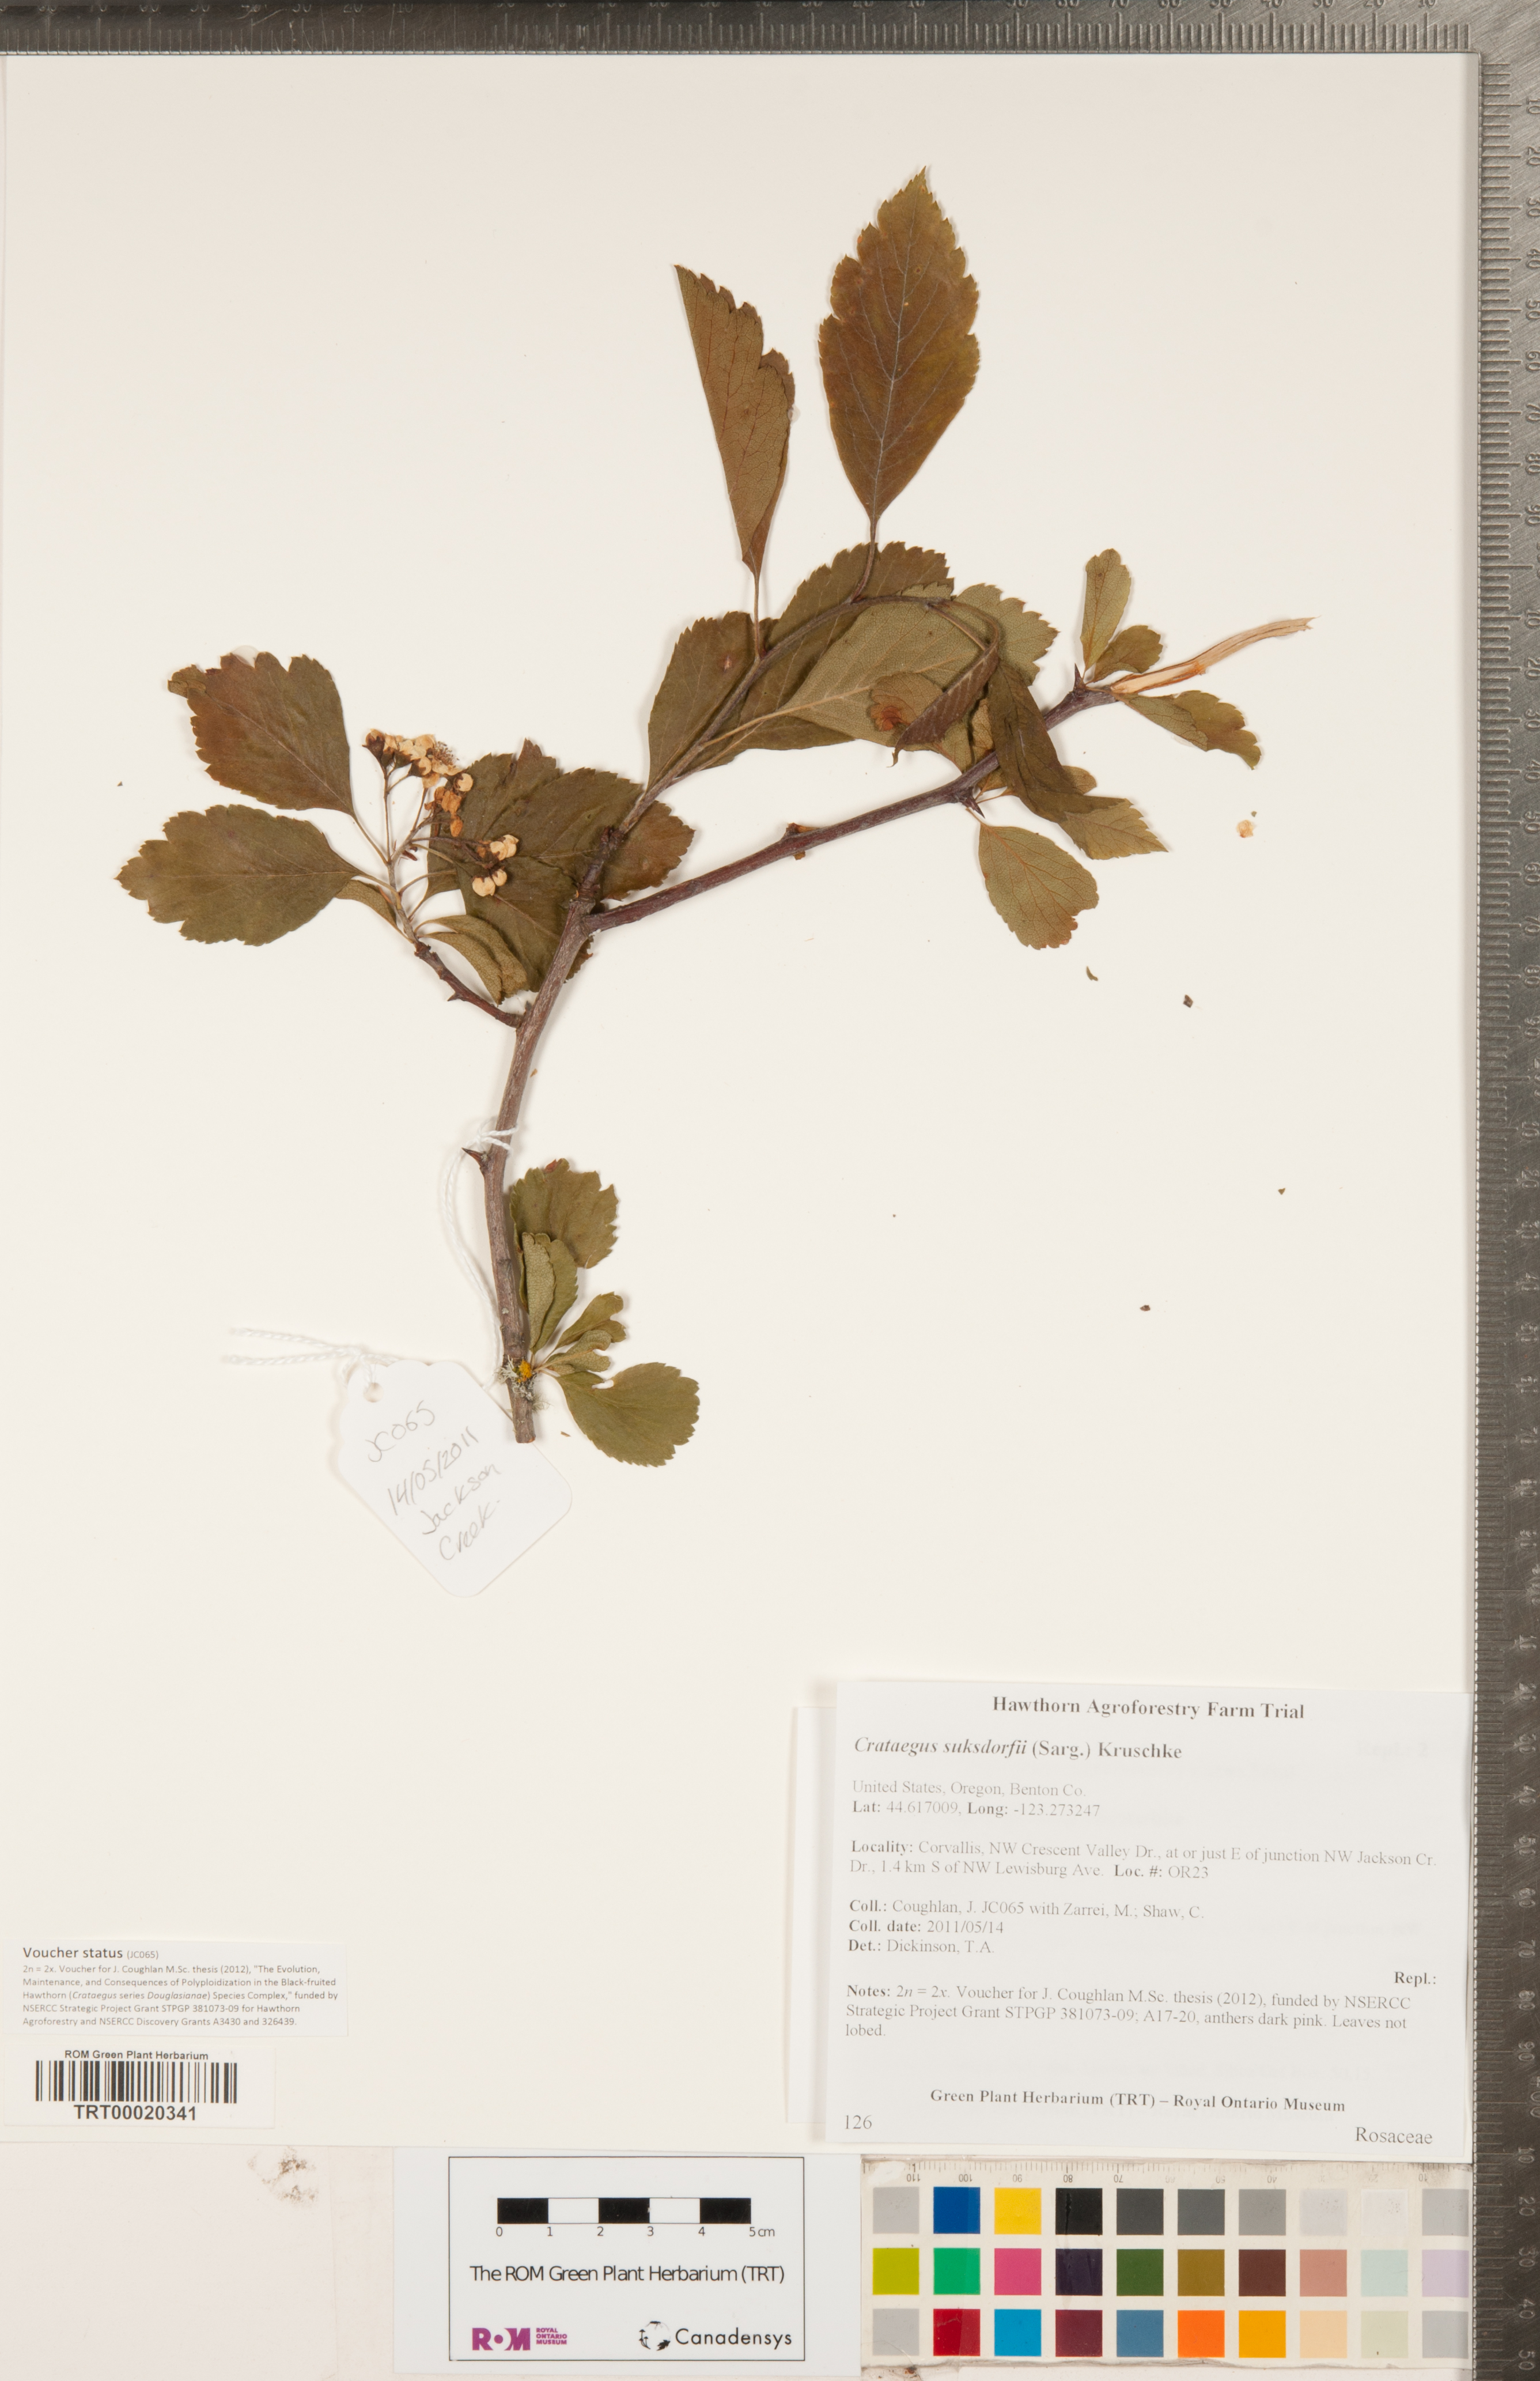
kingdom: Plantae
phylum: Tracheophyta
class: Magnoliopsida
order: Rosales
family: Rosaceae
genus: Crataegus
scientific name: Crataegus gaylussacia
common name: Huckleberry hawthorn
